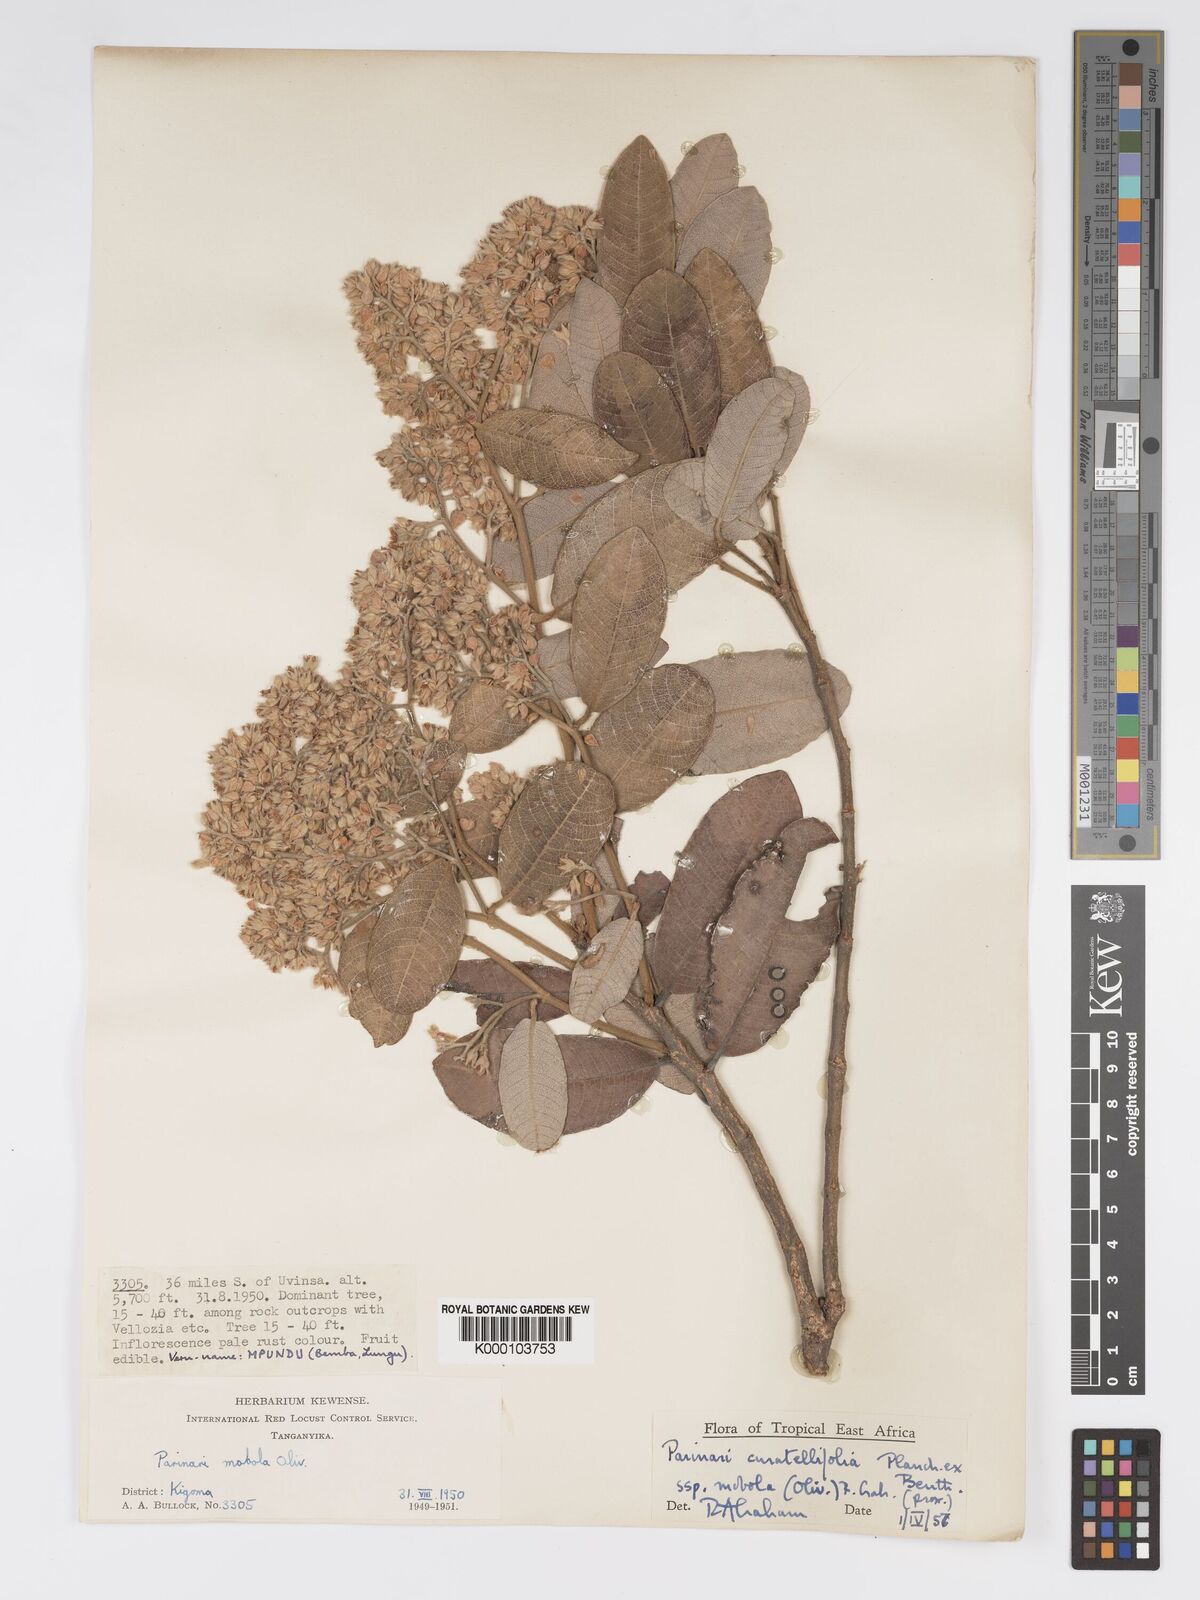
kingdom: Plantae
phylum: Tracheophyta
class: Magnoliopsida
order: Malpighiales
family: Chrysobalanaceae
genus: Parinari
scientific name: Parinari curatellifolia
